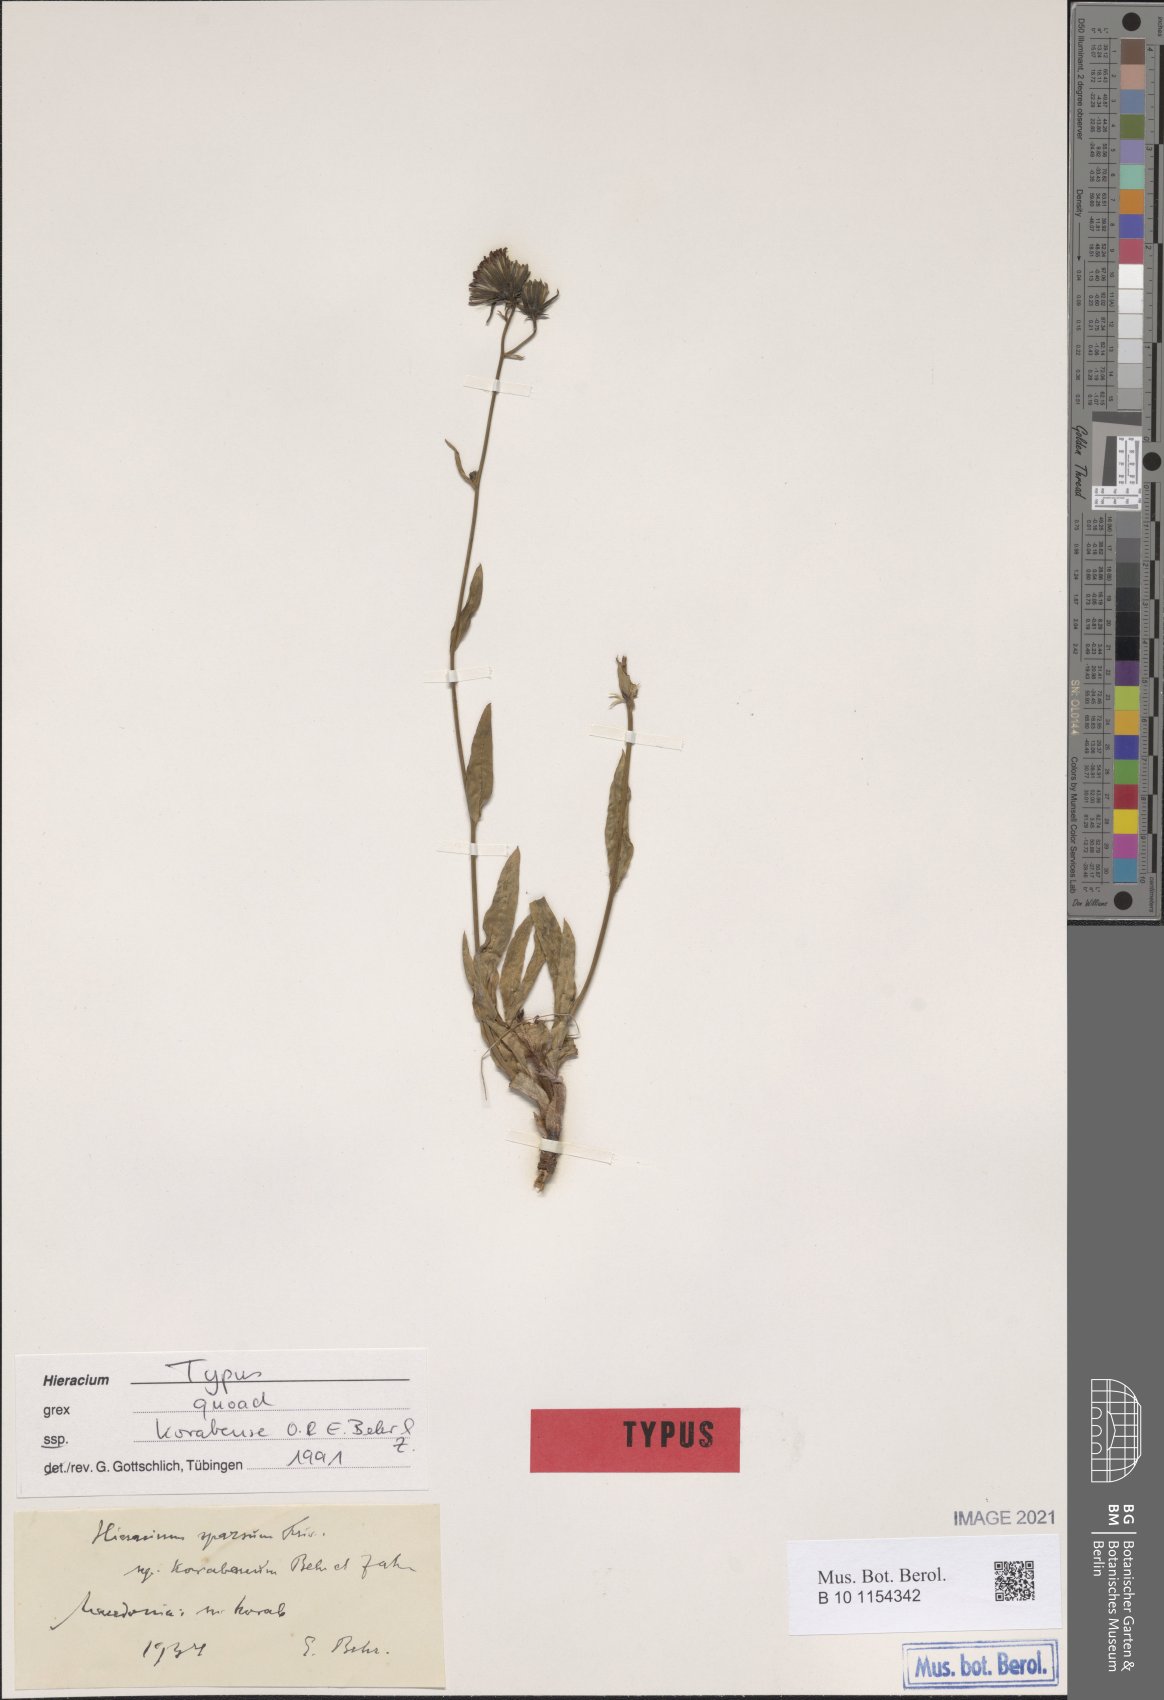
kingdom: Plantae
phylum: Tracheophyta
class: Magnoliopsida
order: Asterales
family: Asteraceae
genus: Hieracium
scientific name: Hieracium sparsum
